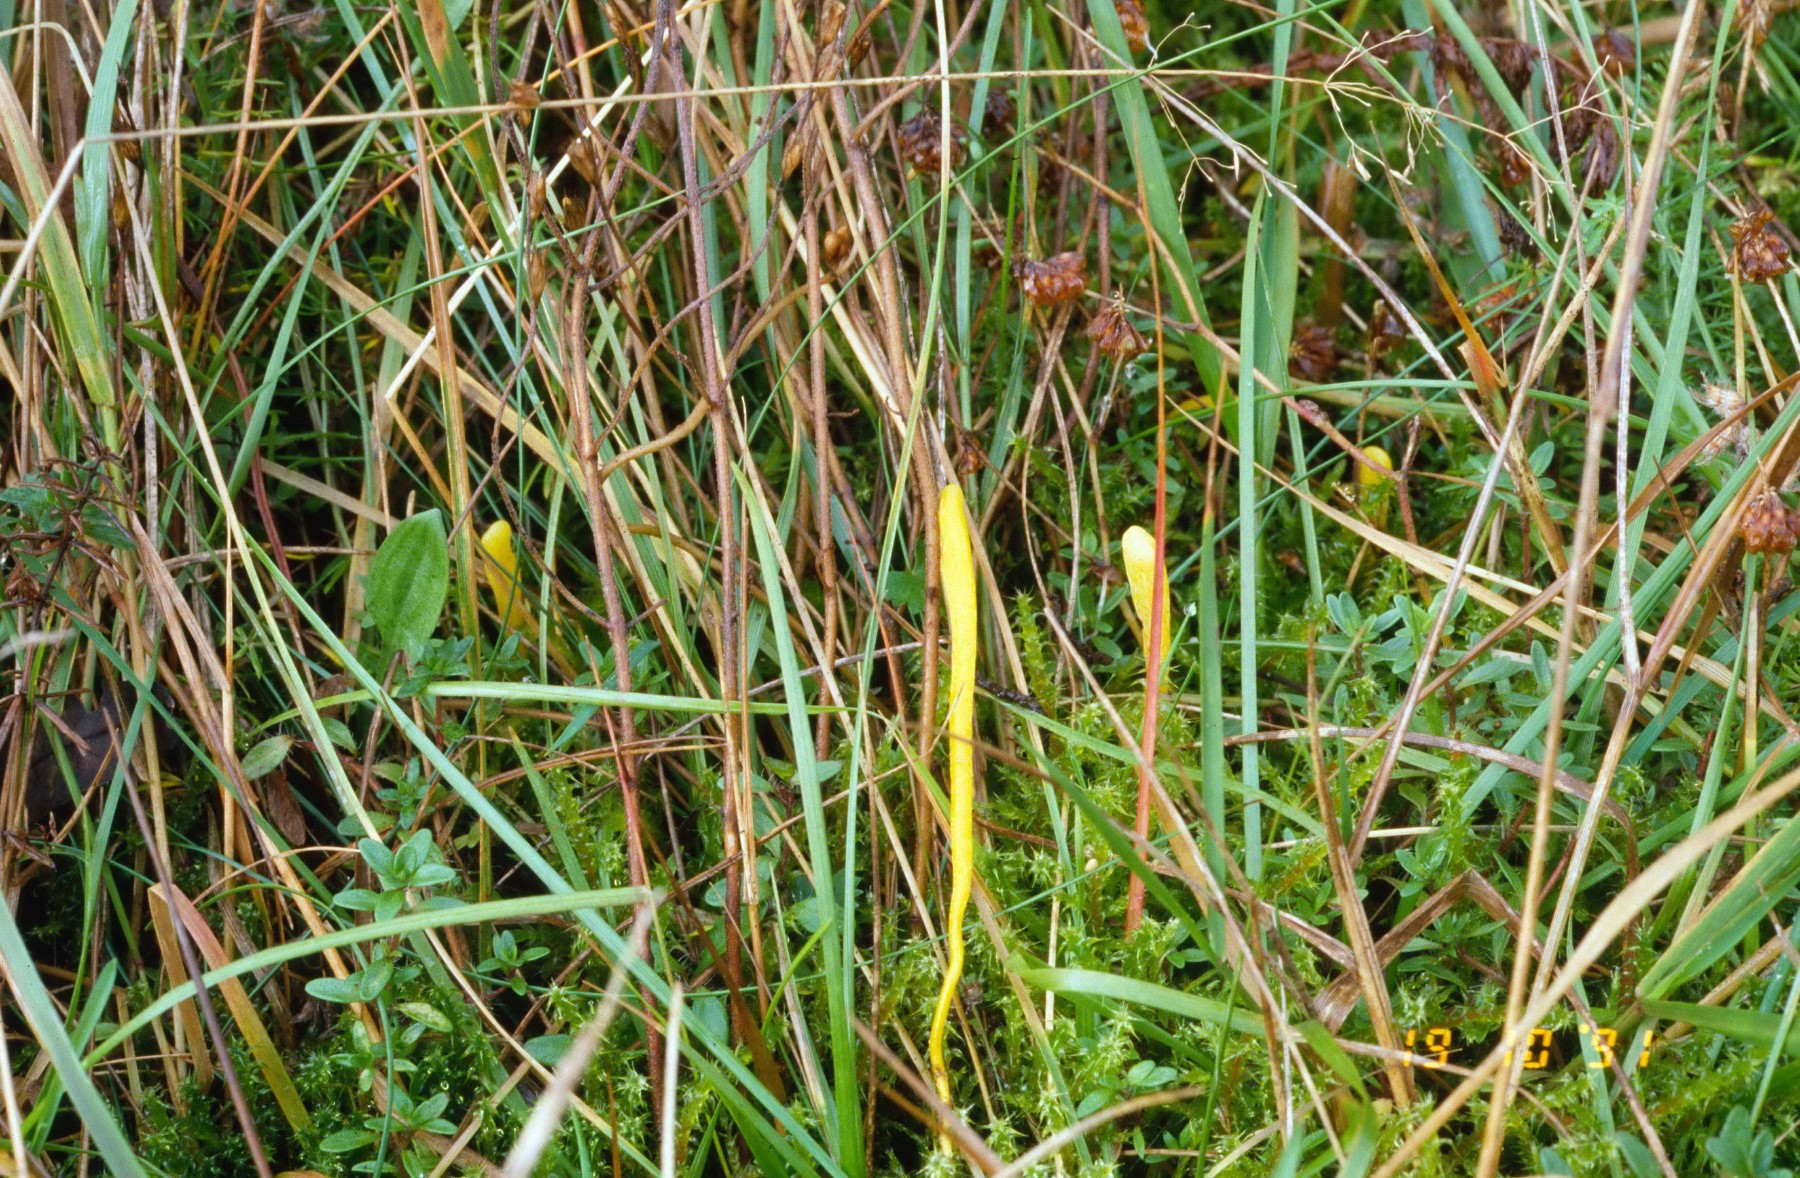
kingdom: Fungi
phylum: Basidiomycota
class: Agaricomycetes
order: Agaricales
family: Clavariaceae
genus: Clavulinopsis
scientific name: Clavulinopsis helvola
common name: orangegul køllesvamp
